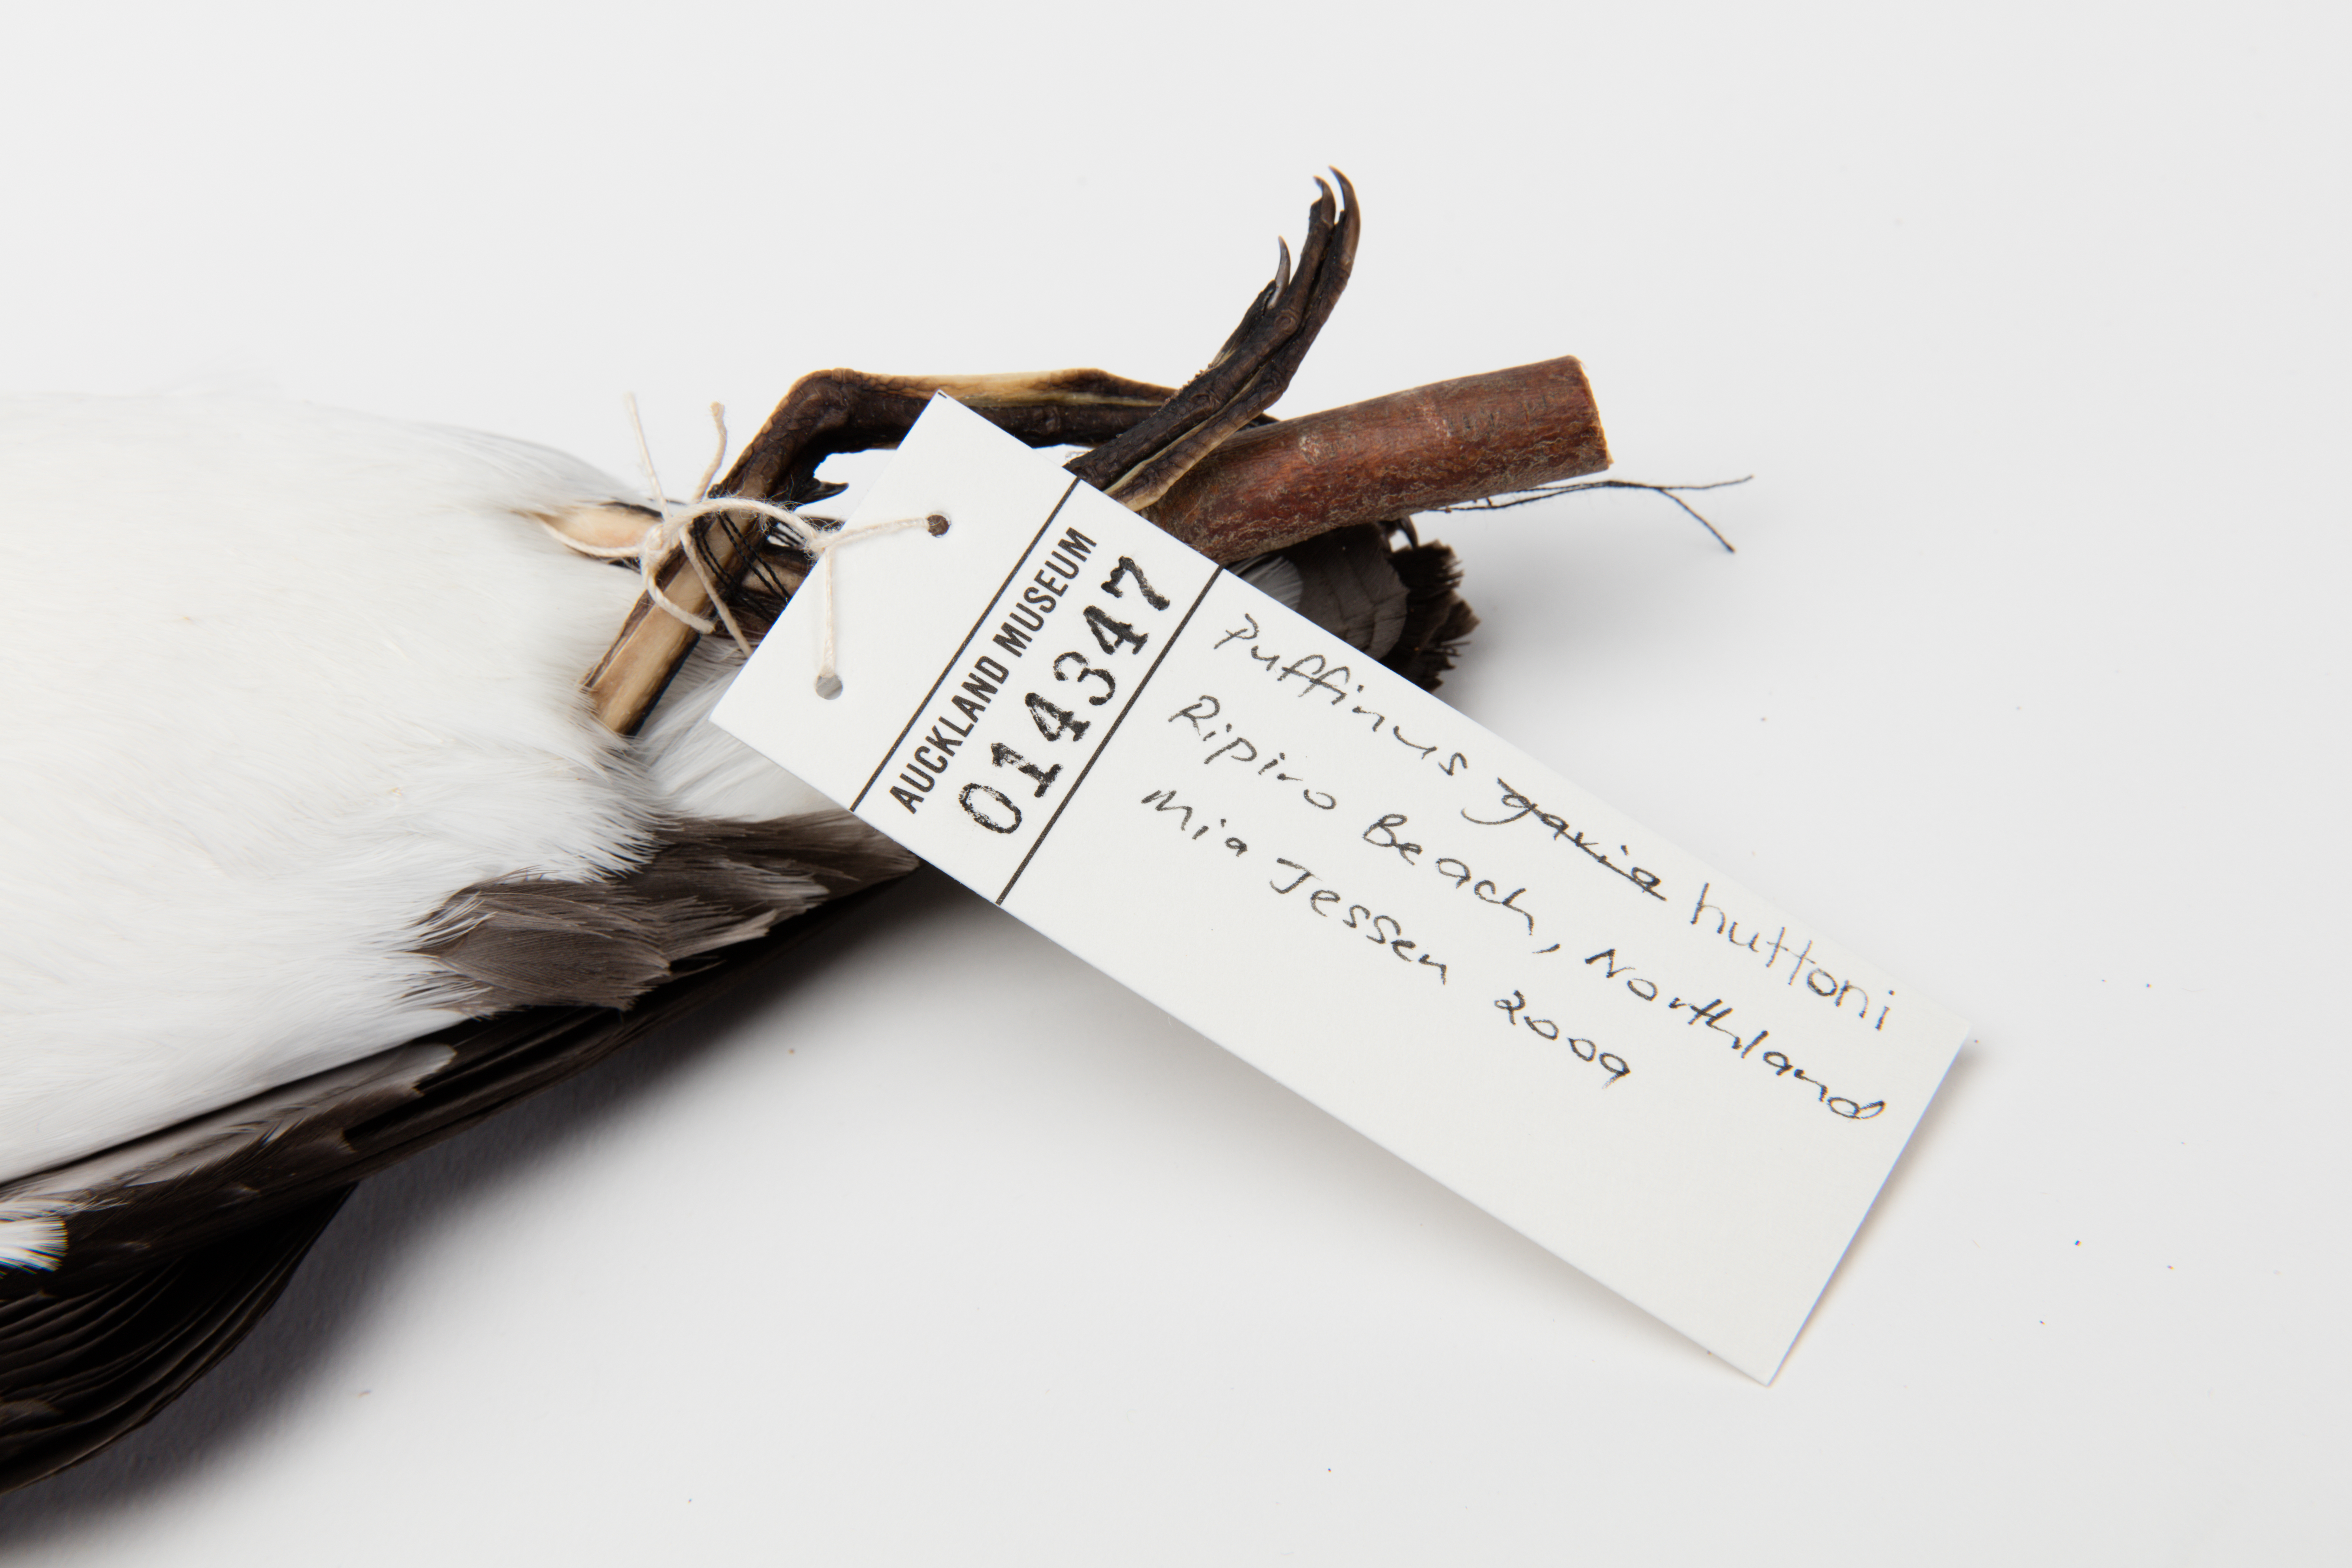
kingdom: Animalia
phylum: Chordata
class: Aves
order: Procellariiformes
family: Procellariidae
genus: Puffinus
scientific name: Puffinus huttoni
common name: Hutton's shearwater
